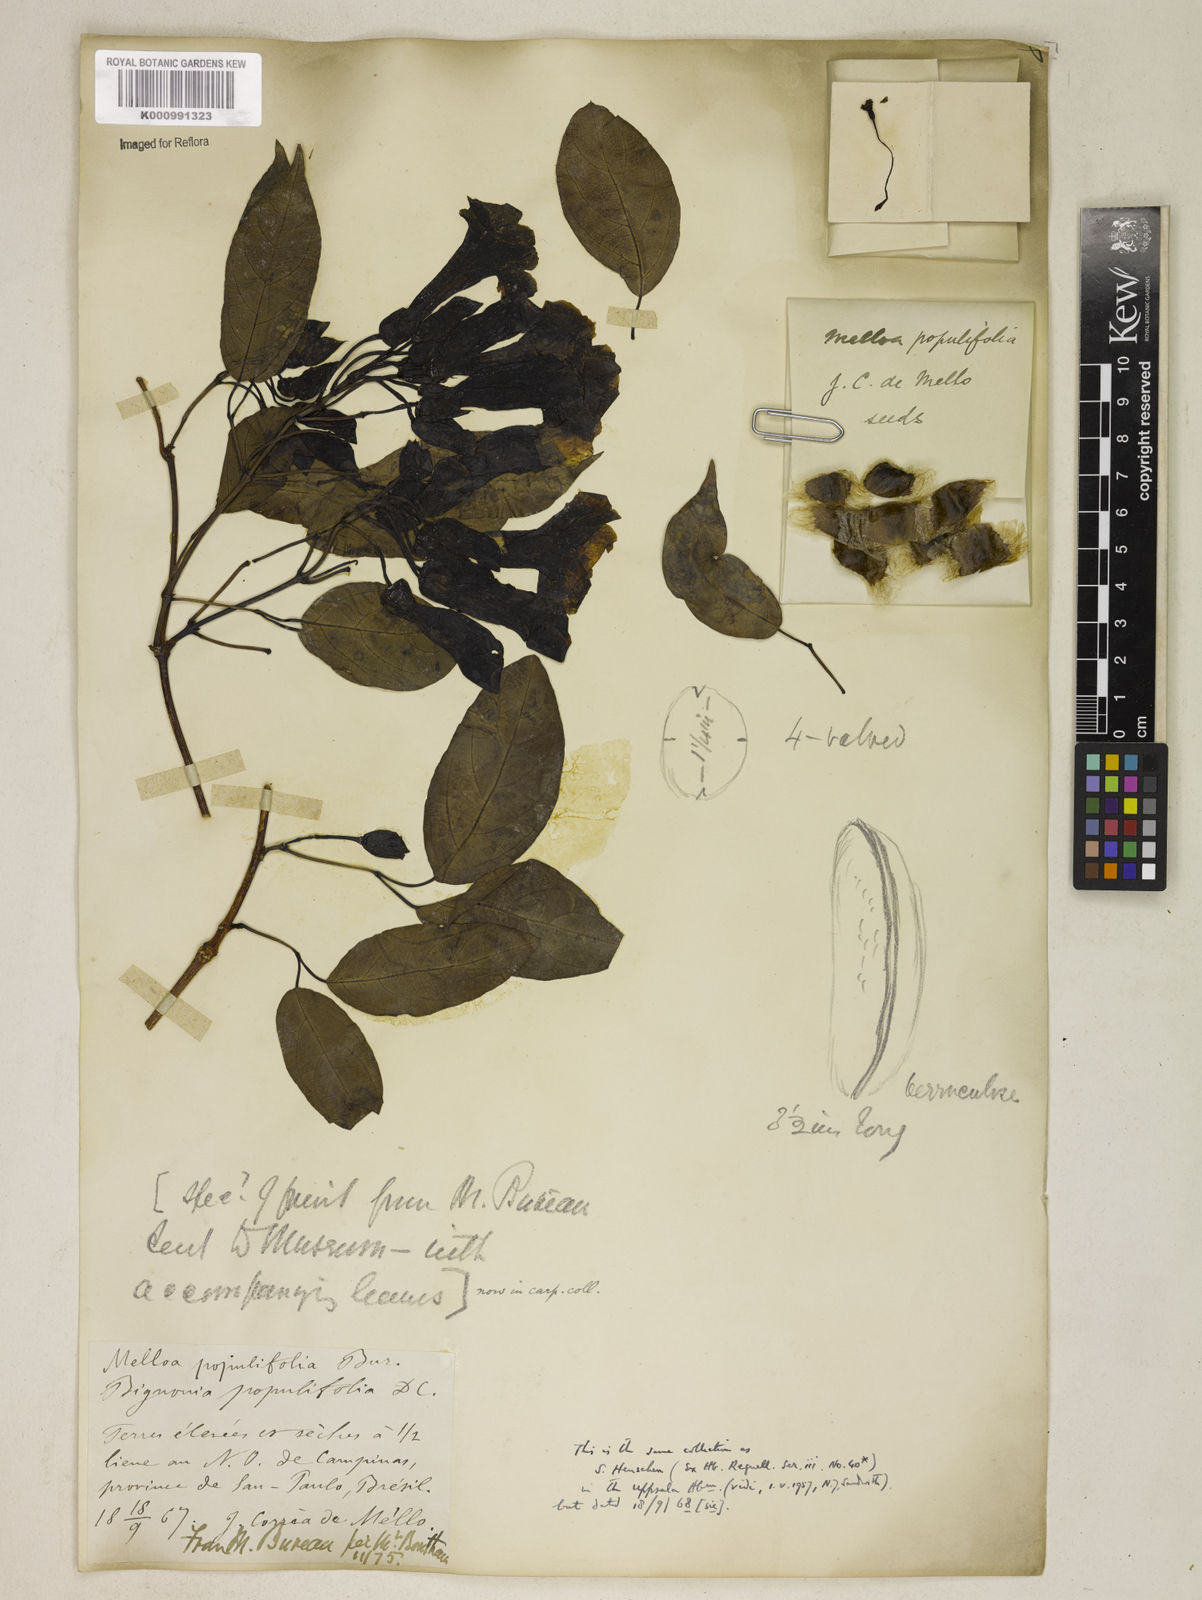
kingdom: Plantae
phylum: Tracheophyta
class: Magnoliopsida
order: Lamiales
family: Bignoniaceae
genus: Dolichandra
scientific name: Dolichandra quadrivalvis
